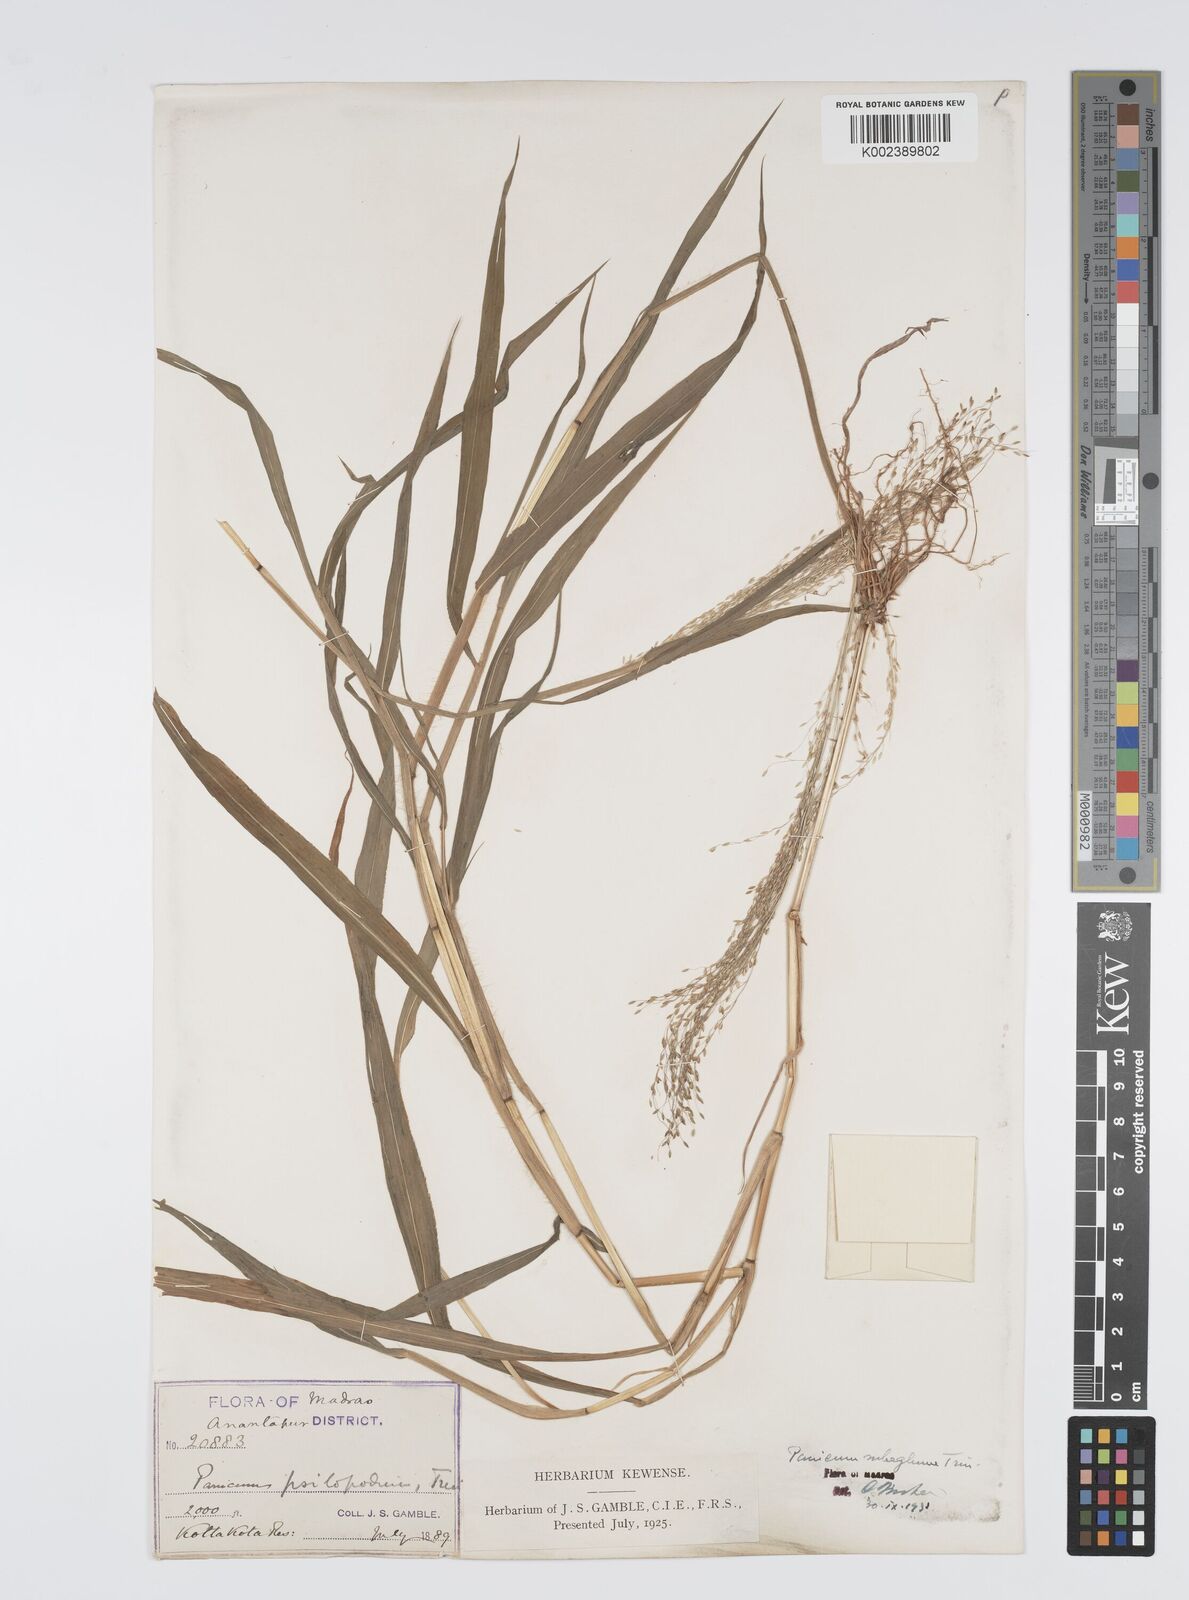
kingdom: Plantae
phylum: Tracheophyta
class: Liliopsida
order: Poales
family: Poaceae
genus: Digitaria
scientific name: Digitaria tomentosa
